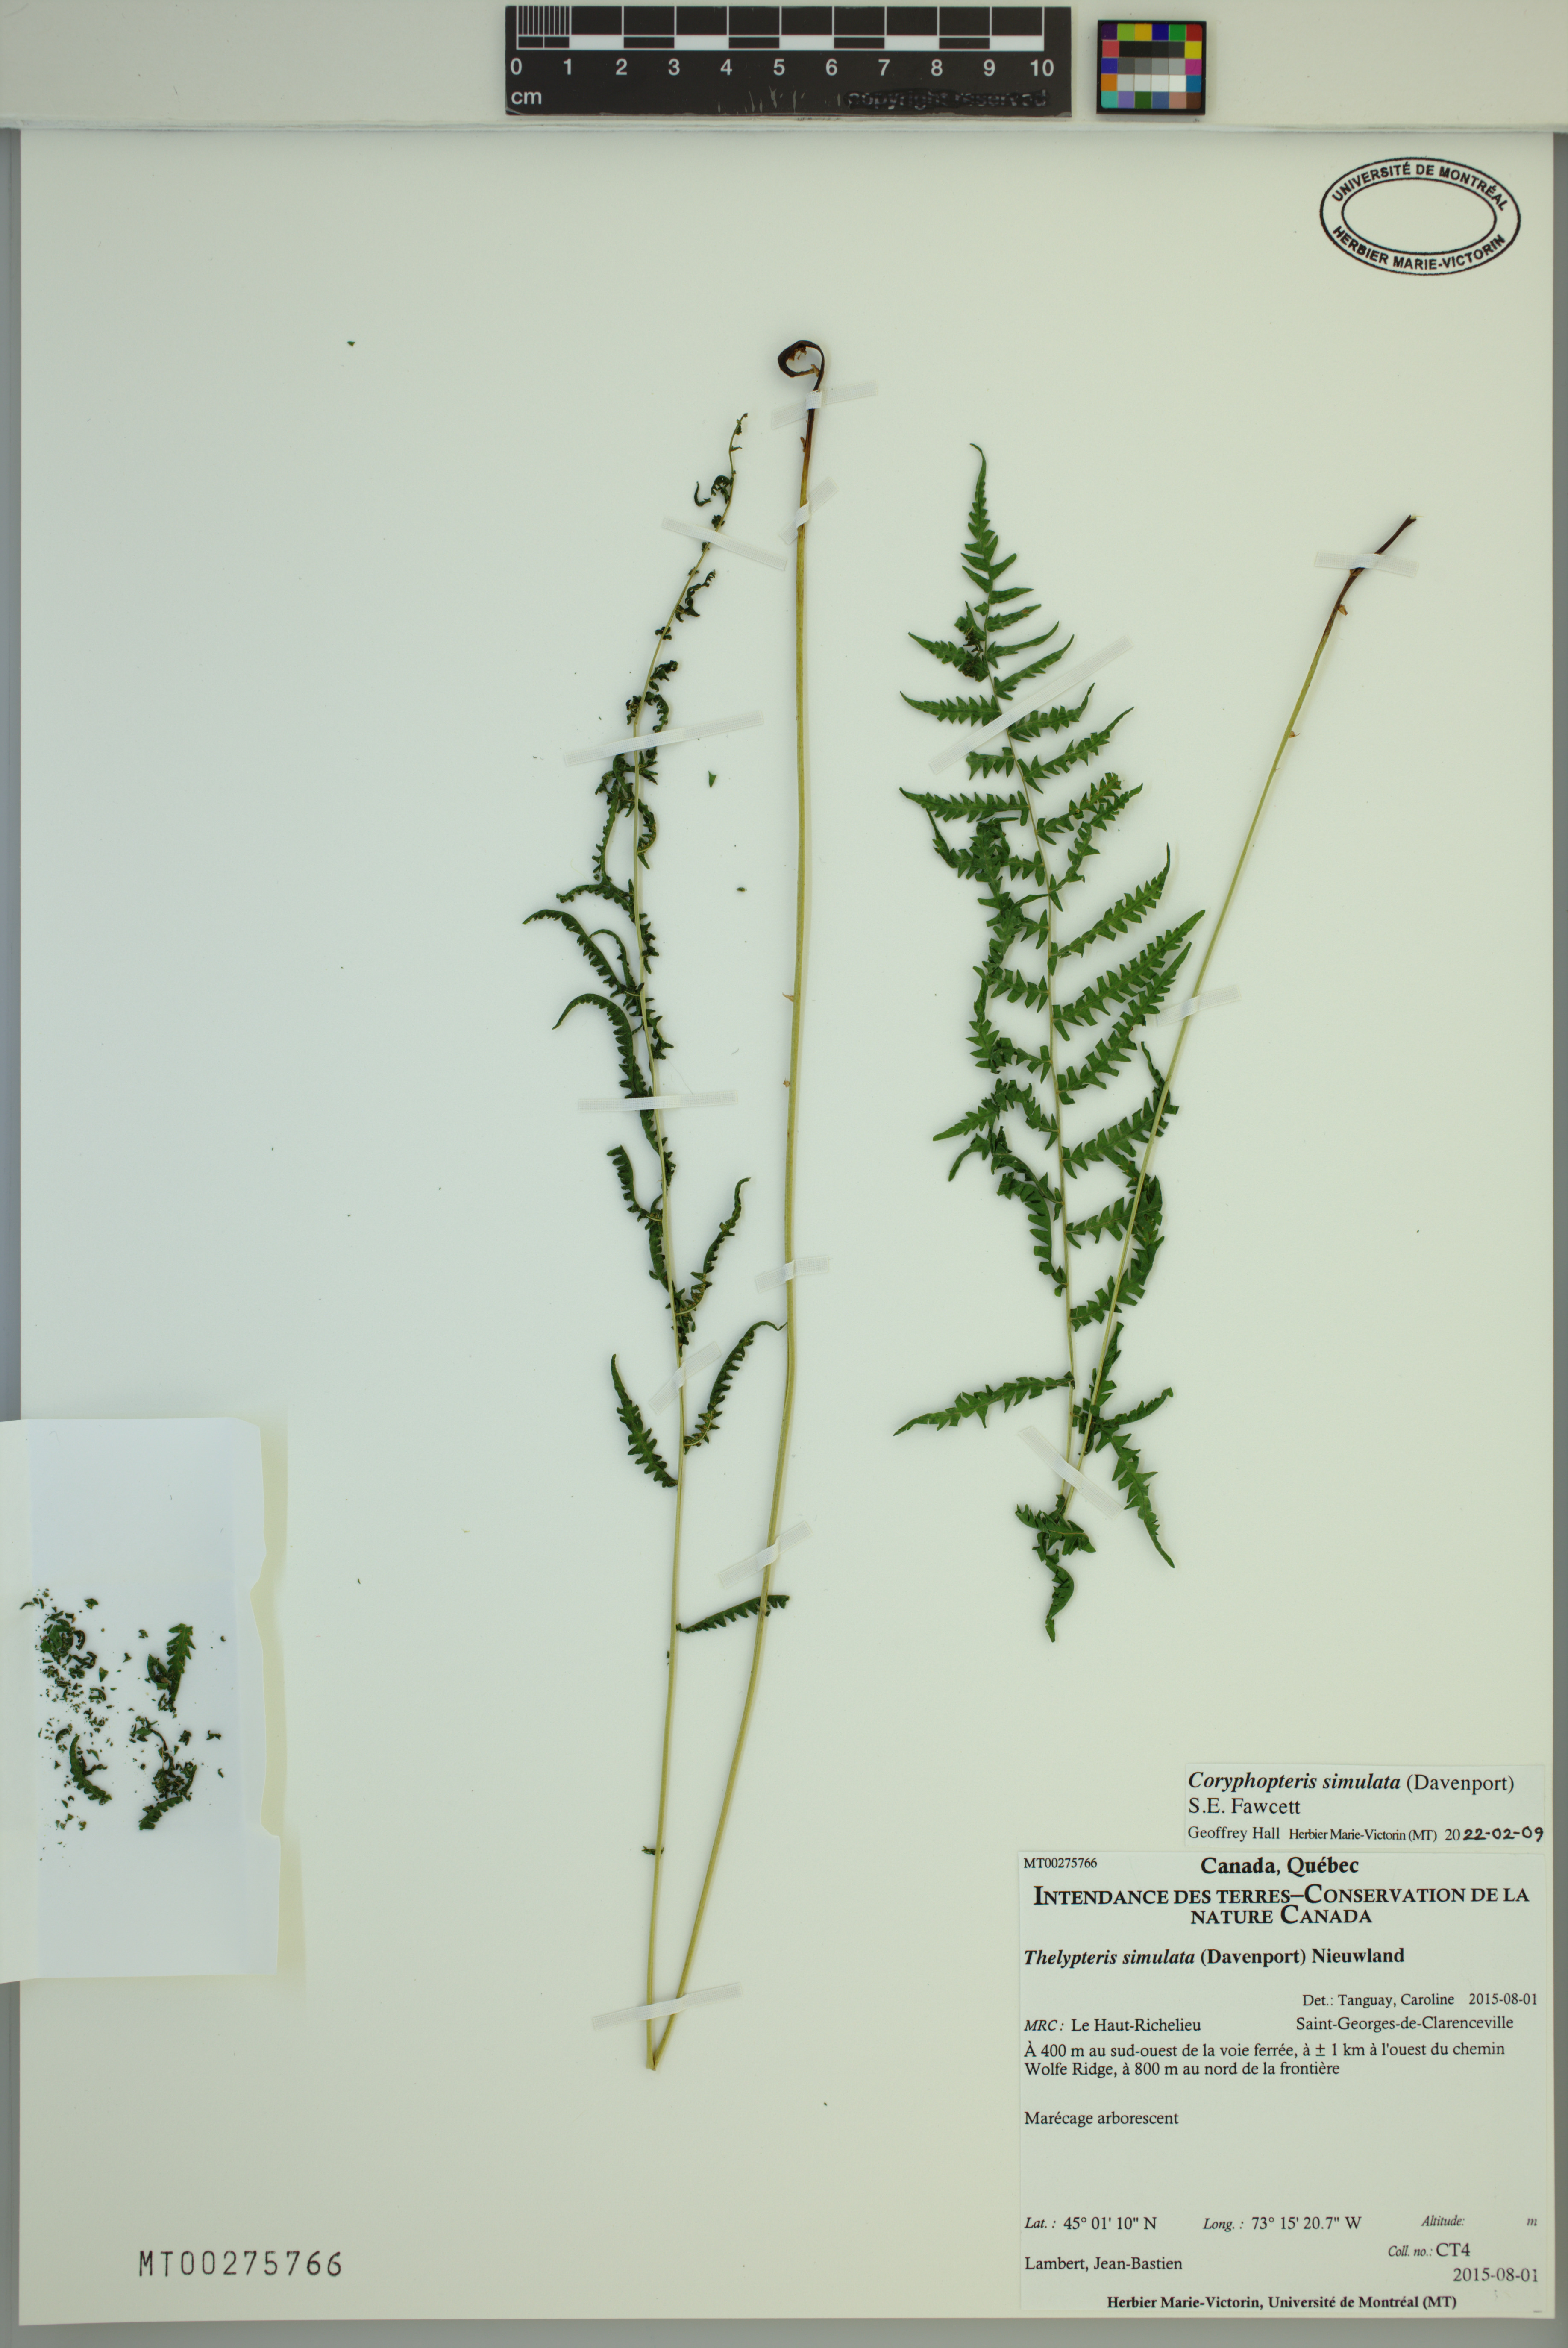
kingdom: Plantae
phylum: Tracheophyta
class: Polypodiopsida
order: Polypodiales
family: Thelypteridaceae
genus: Coryphopteris
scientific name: Coryphopteris simulata
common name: Bog fern
